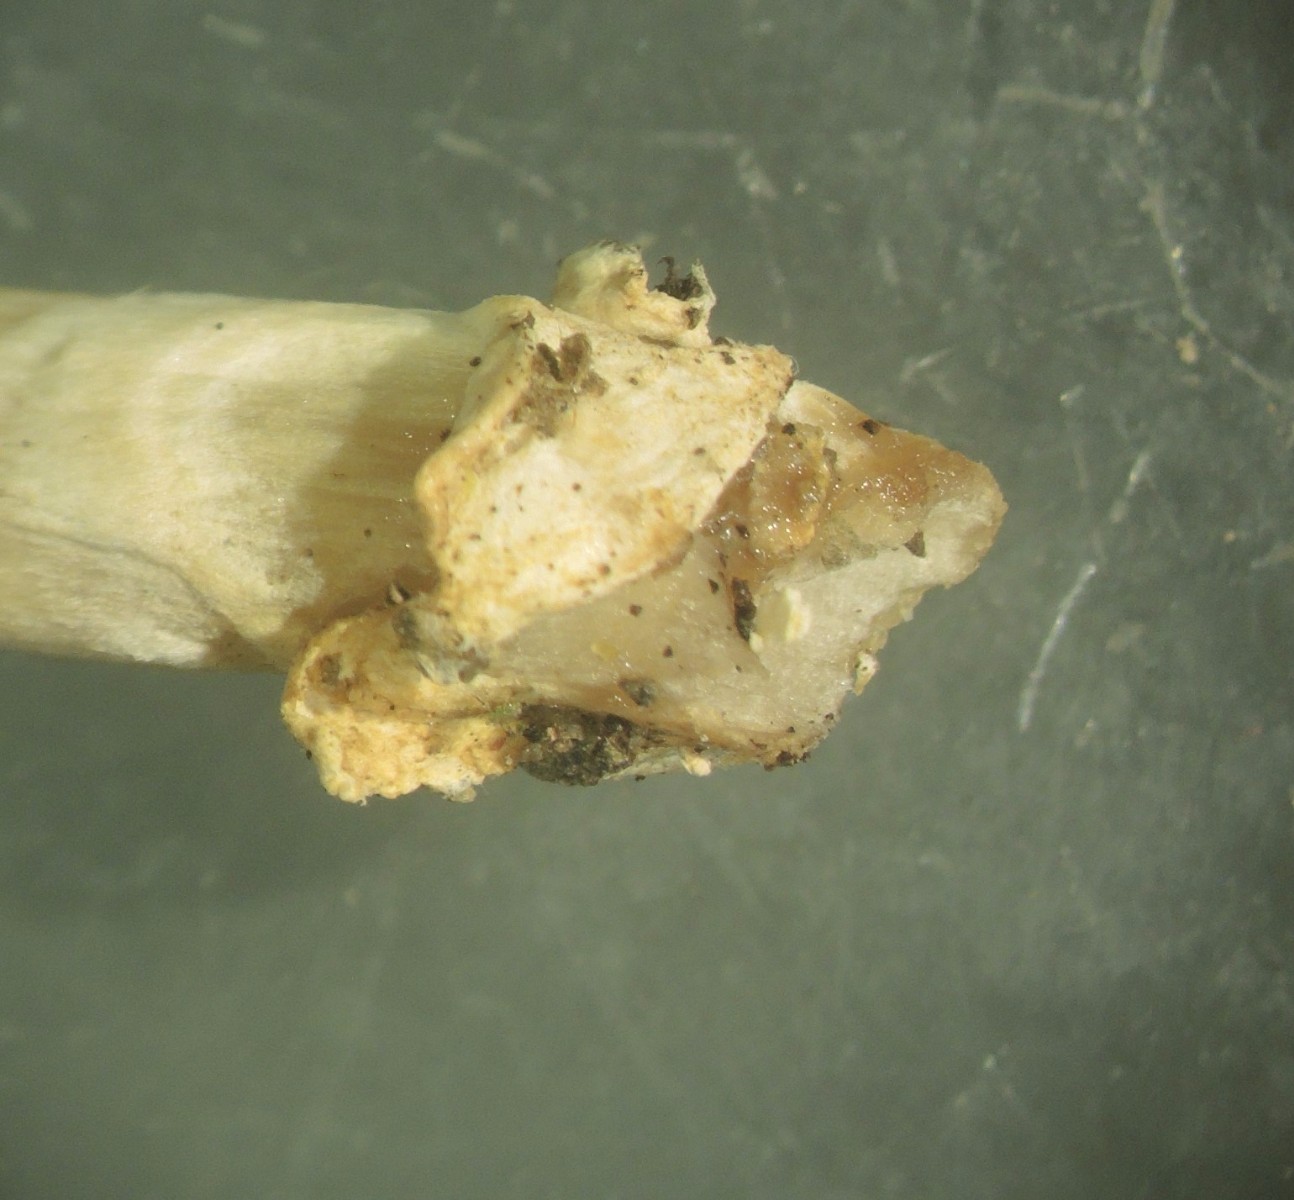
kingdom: Fungi
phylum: Basidiomycota
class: Agaricomycetes
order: Agaricales
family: Amanitaceae
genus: Amanita
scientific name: Amanita vaginata
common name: grå kam-fluesvamp
